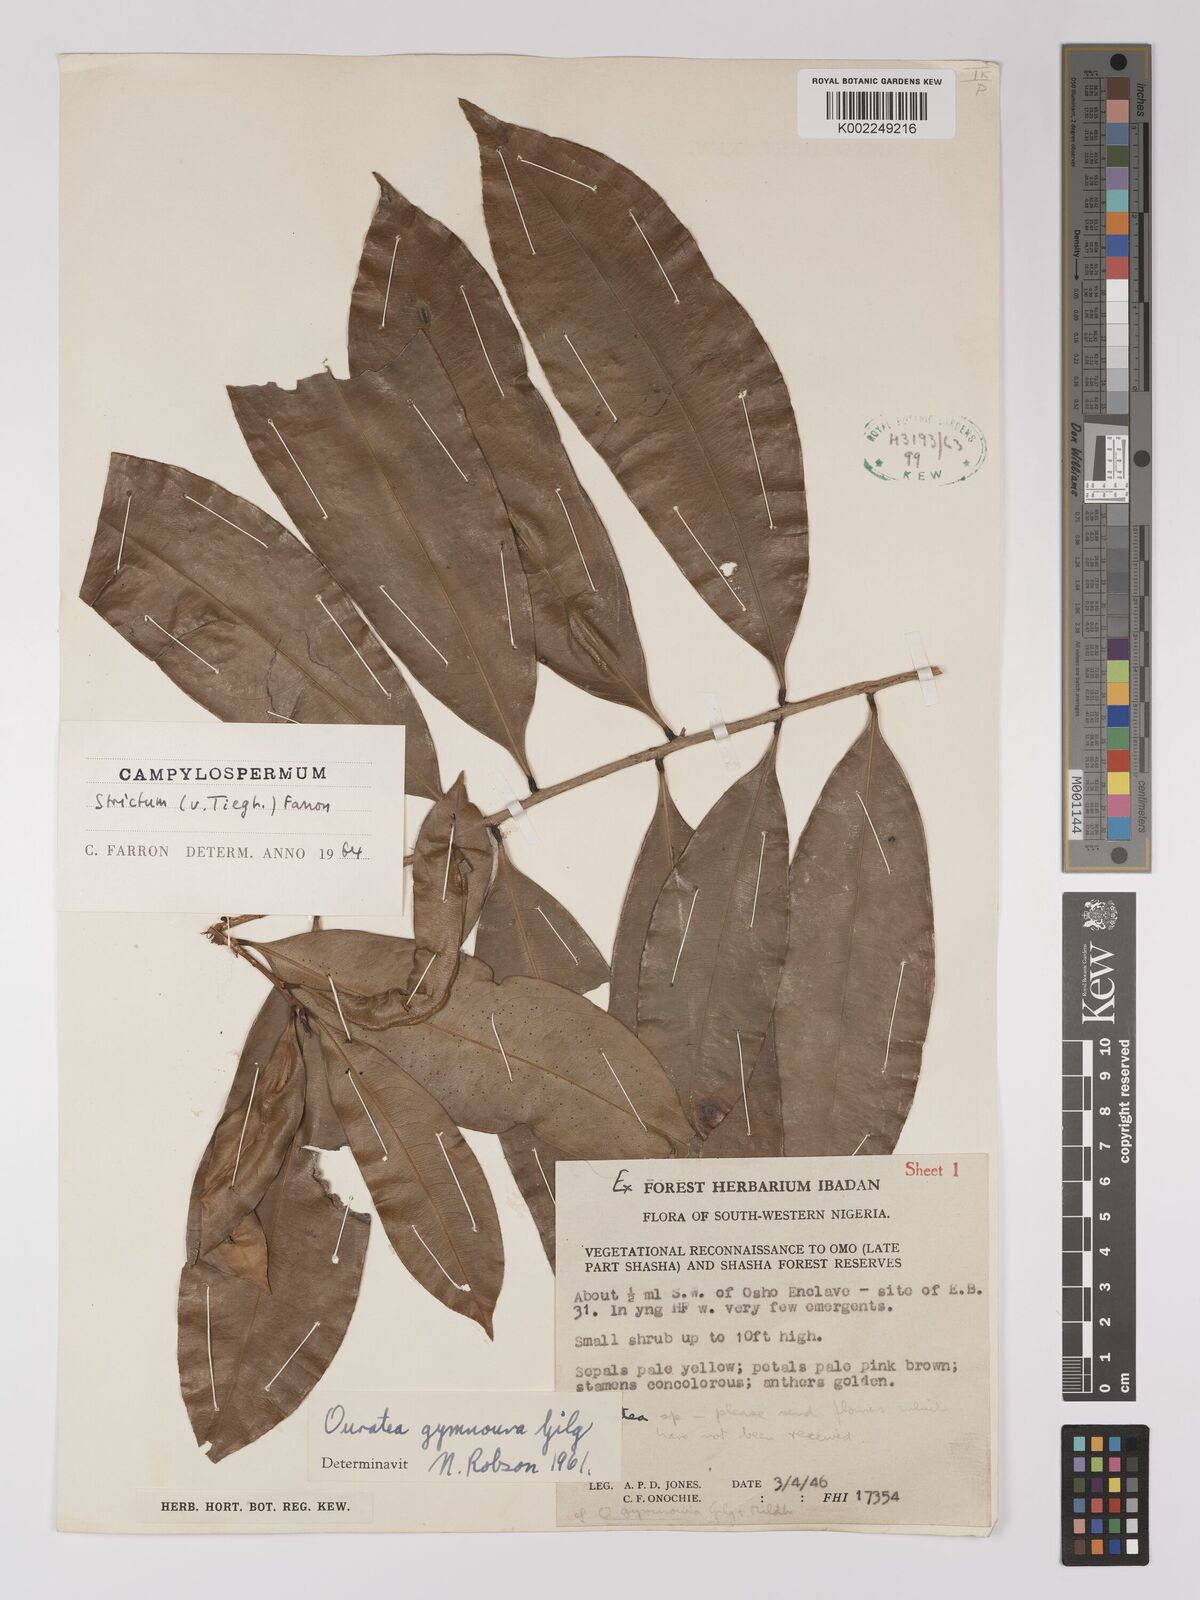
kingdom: Plantae
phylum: Tracheophyta
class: Magnoliopsida
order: Malpighiales
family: Ochnaceae
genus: Campylospermum
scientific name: Campylospermum
